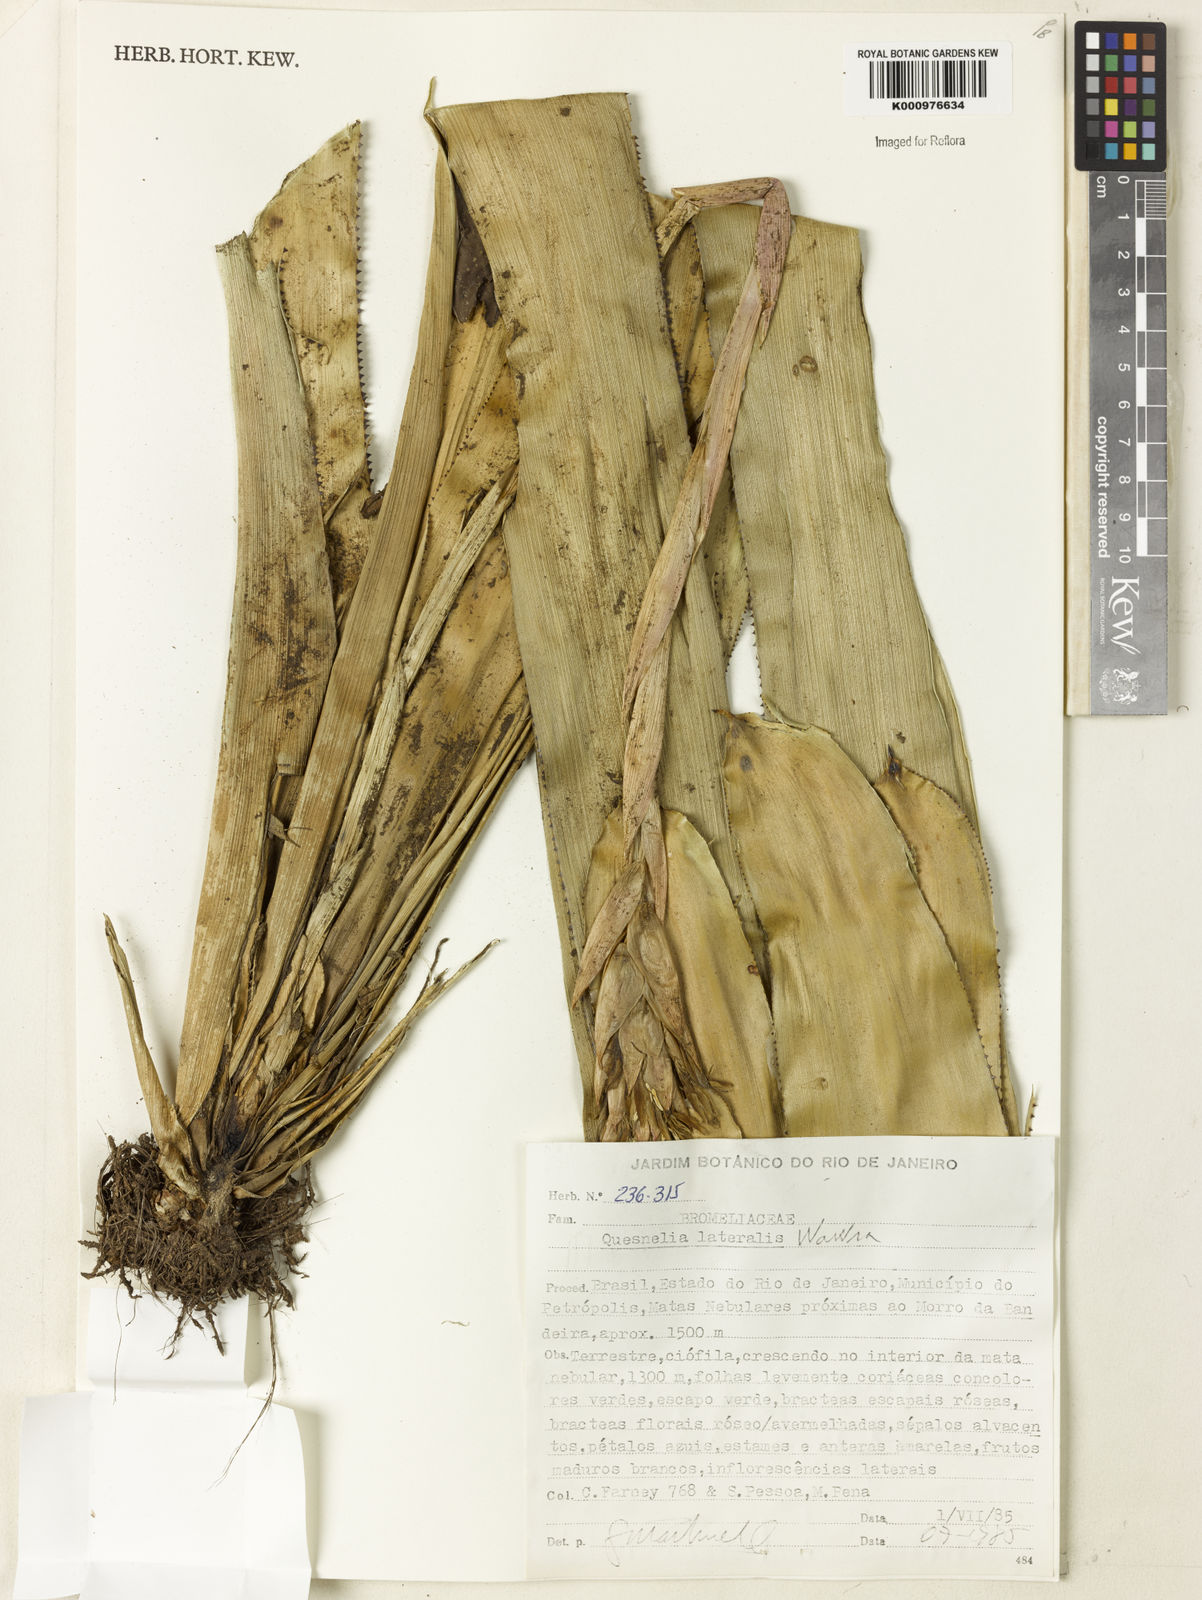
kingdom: Plantae
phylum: Tracheophyta
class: Liliopsida
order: Poales
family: Bromeliaceae
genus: Quesnelia
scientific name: Quesnelia lateralis
